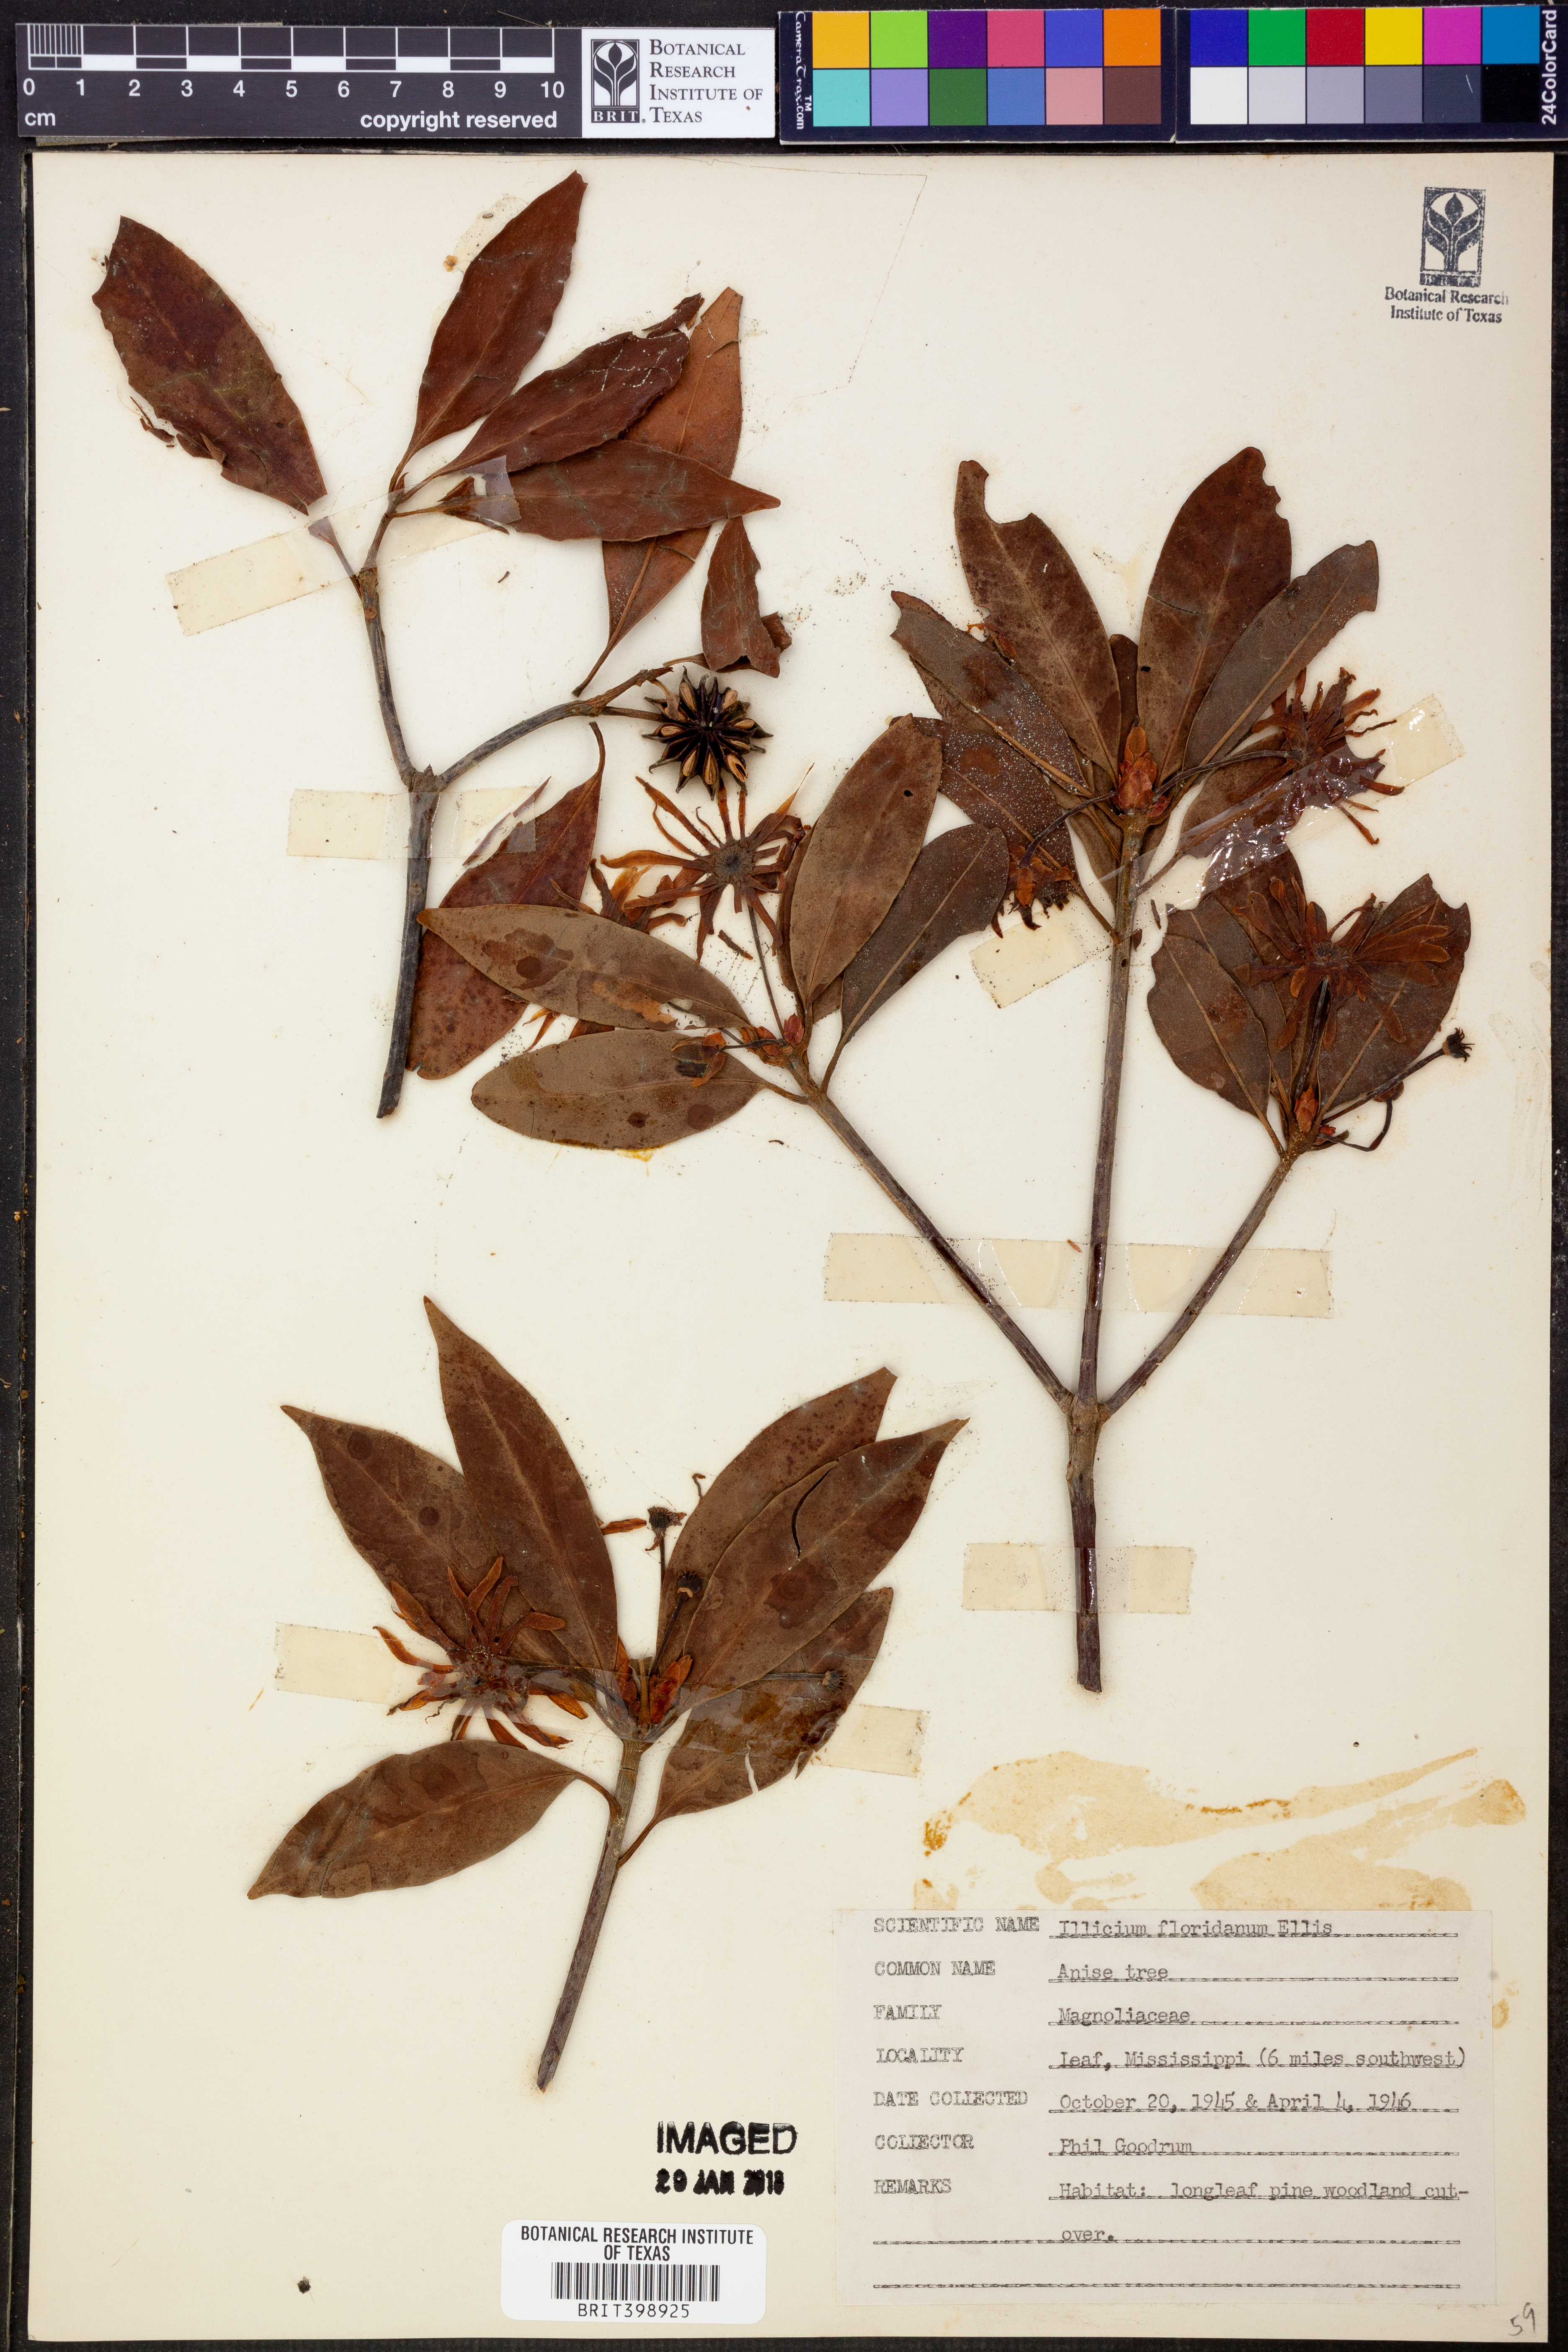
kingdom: Plantae
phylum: Tracheophyta
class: Magnoliopsida
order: Austrobaileyales
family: Schisandraceae
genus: Illicium
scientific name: Illicium floridanum
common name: Florida anisetree
